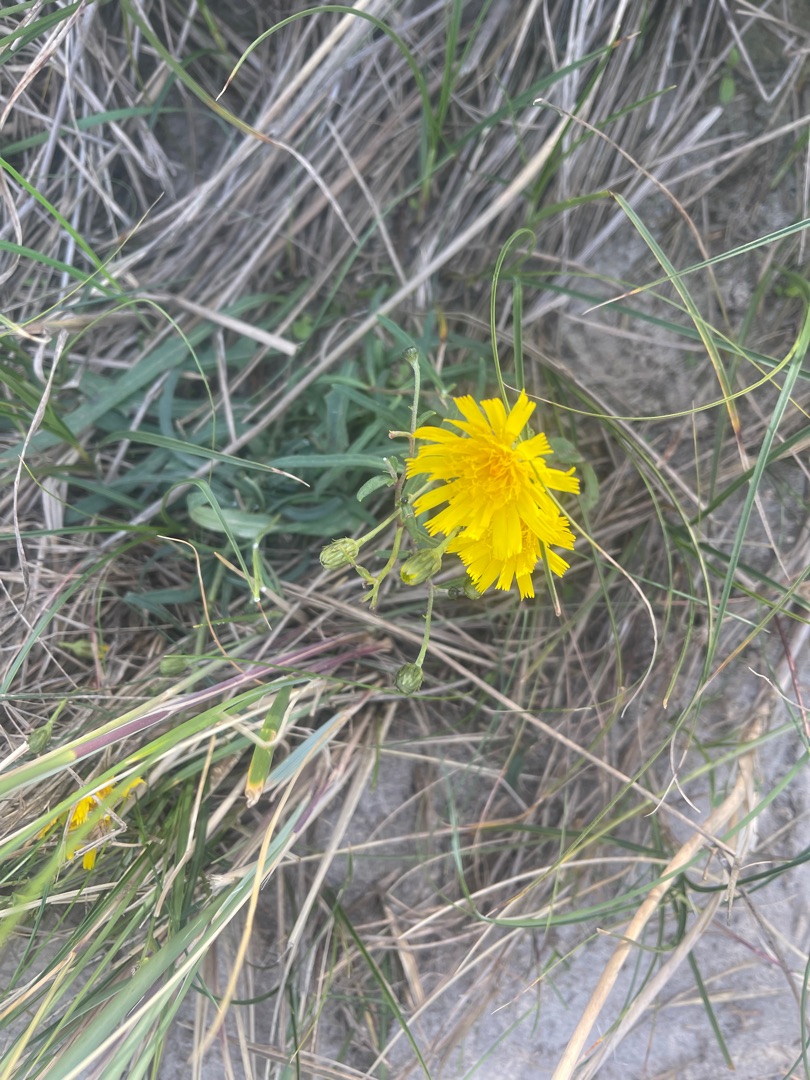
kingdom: Plantae
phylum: Tracheophyta
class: Magnoliopsida
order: Asterales
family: Asteraceae
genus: Hieracium
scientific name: Hieracium umbellatum
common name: Smalbladet høgeurt
